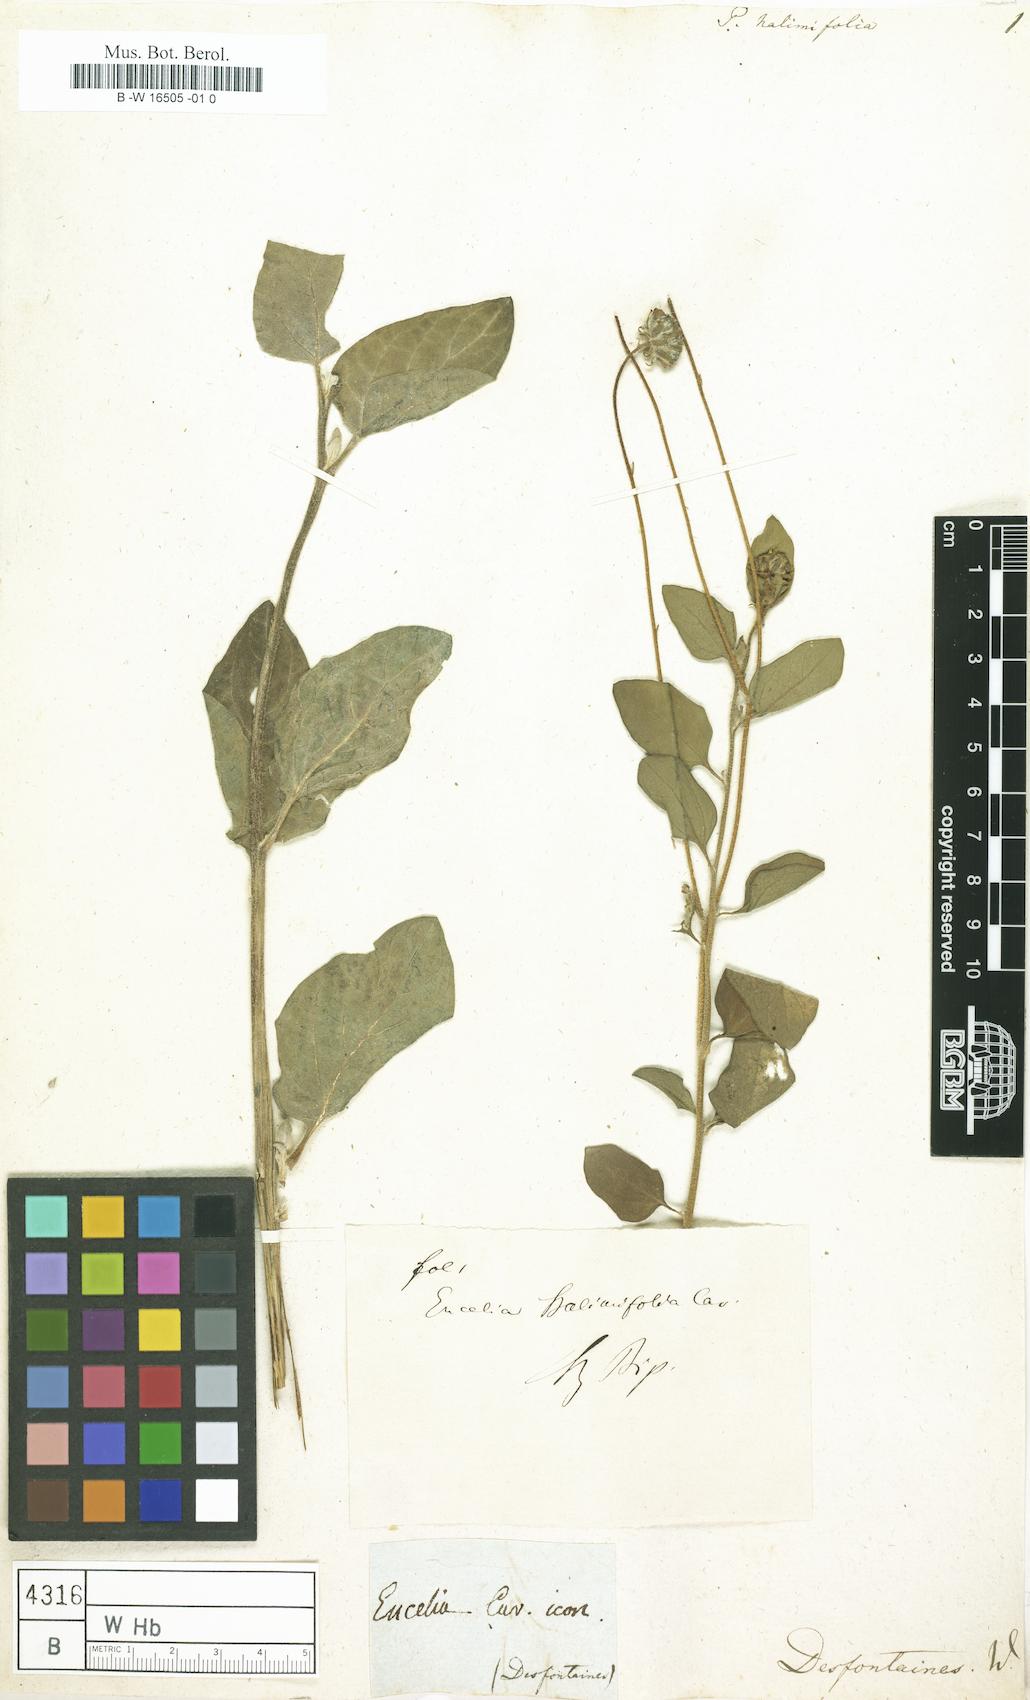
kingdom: Plantae
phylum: Tracheophyta
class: Magnoliopsida
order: Asterales
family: Asteraceae
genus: Encelia
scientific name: Encelia canescens
